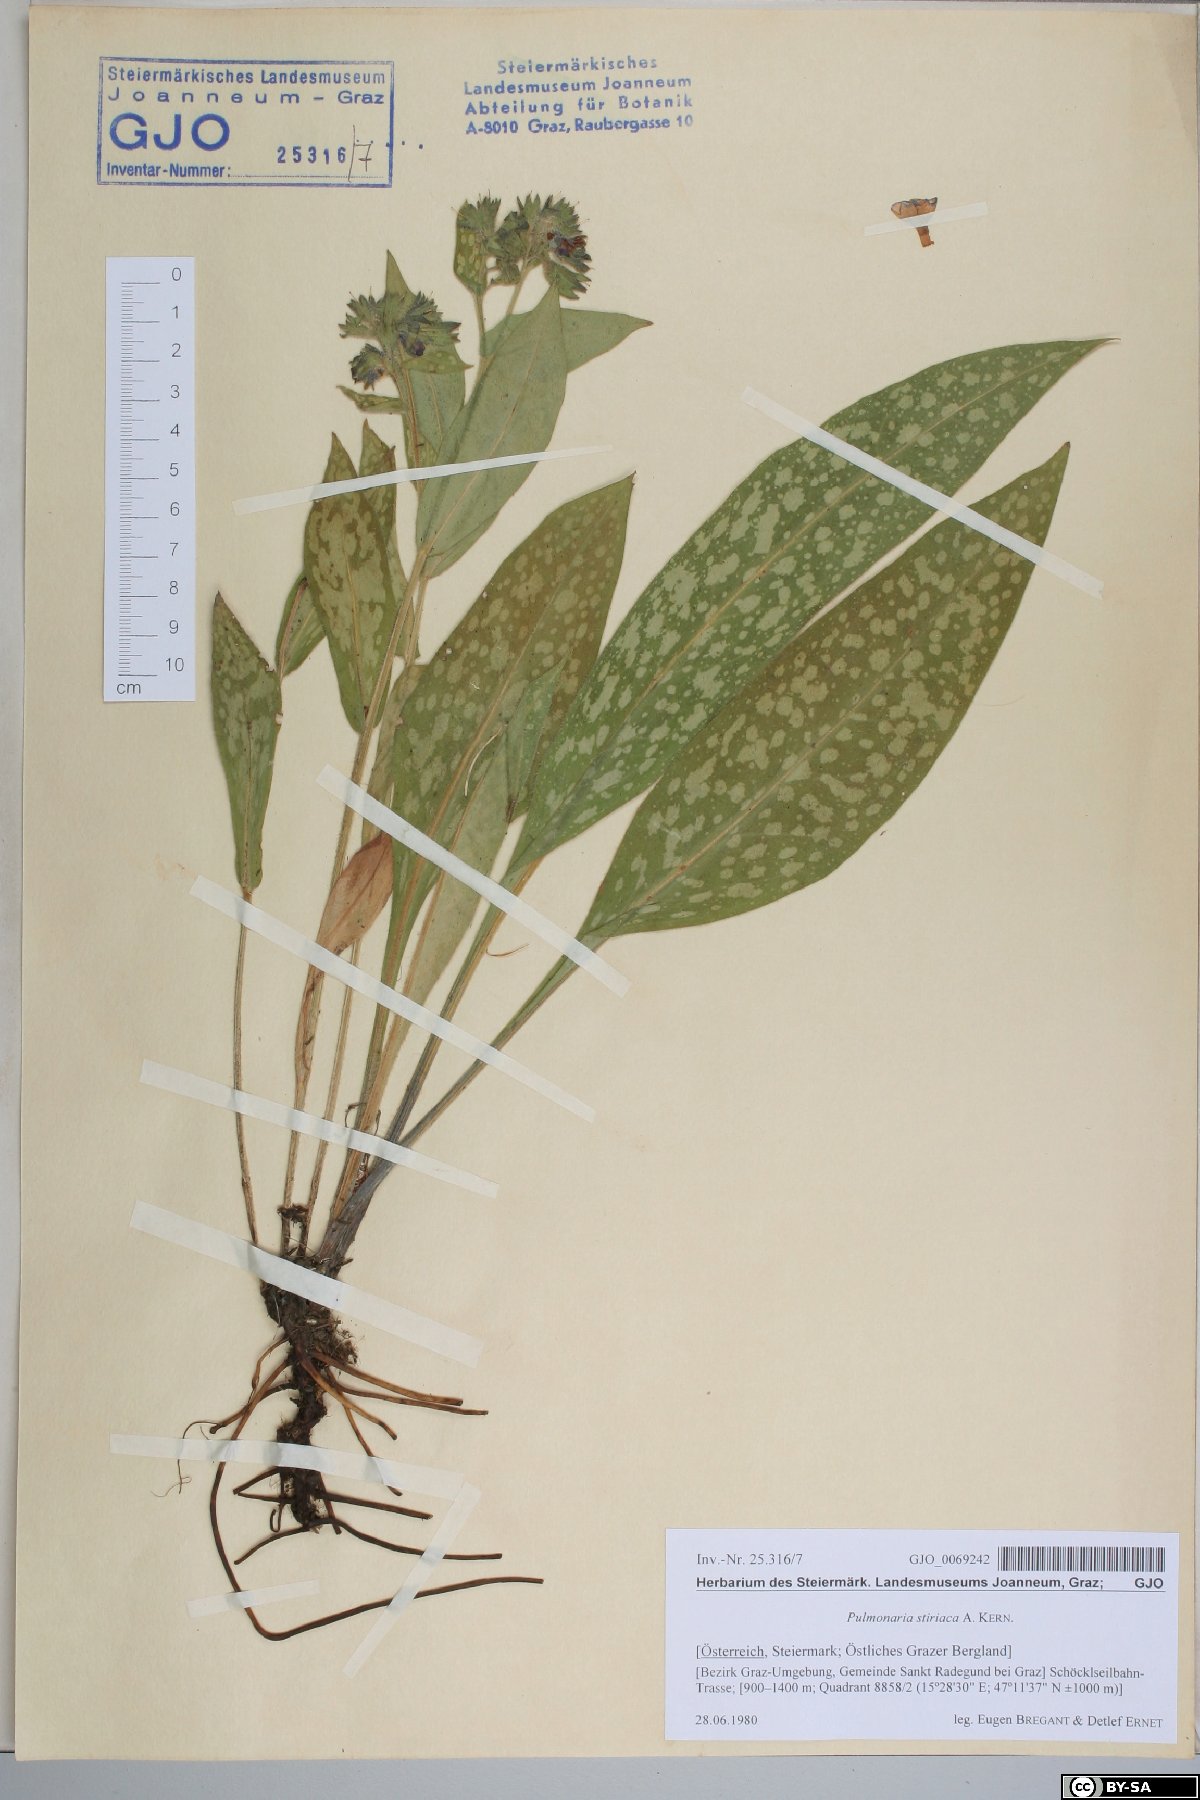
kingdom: Plantae
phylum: Tracheophyta
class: Magnoliopsida
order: Boraginales
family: Boraginaceae
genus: Pulmonaria
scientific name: Pulmonaria stiriaca
